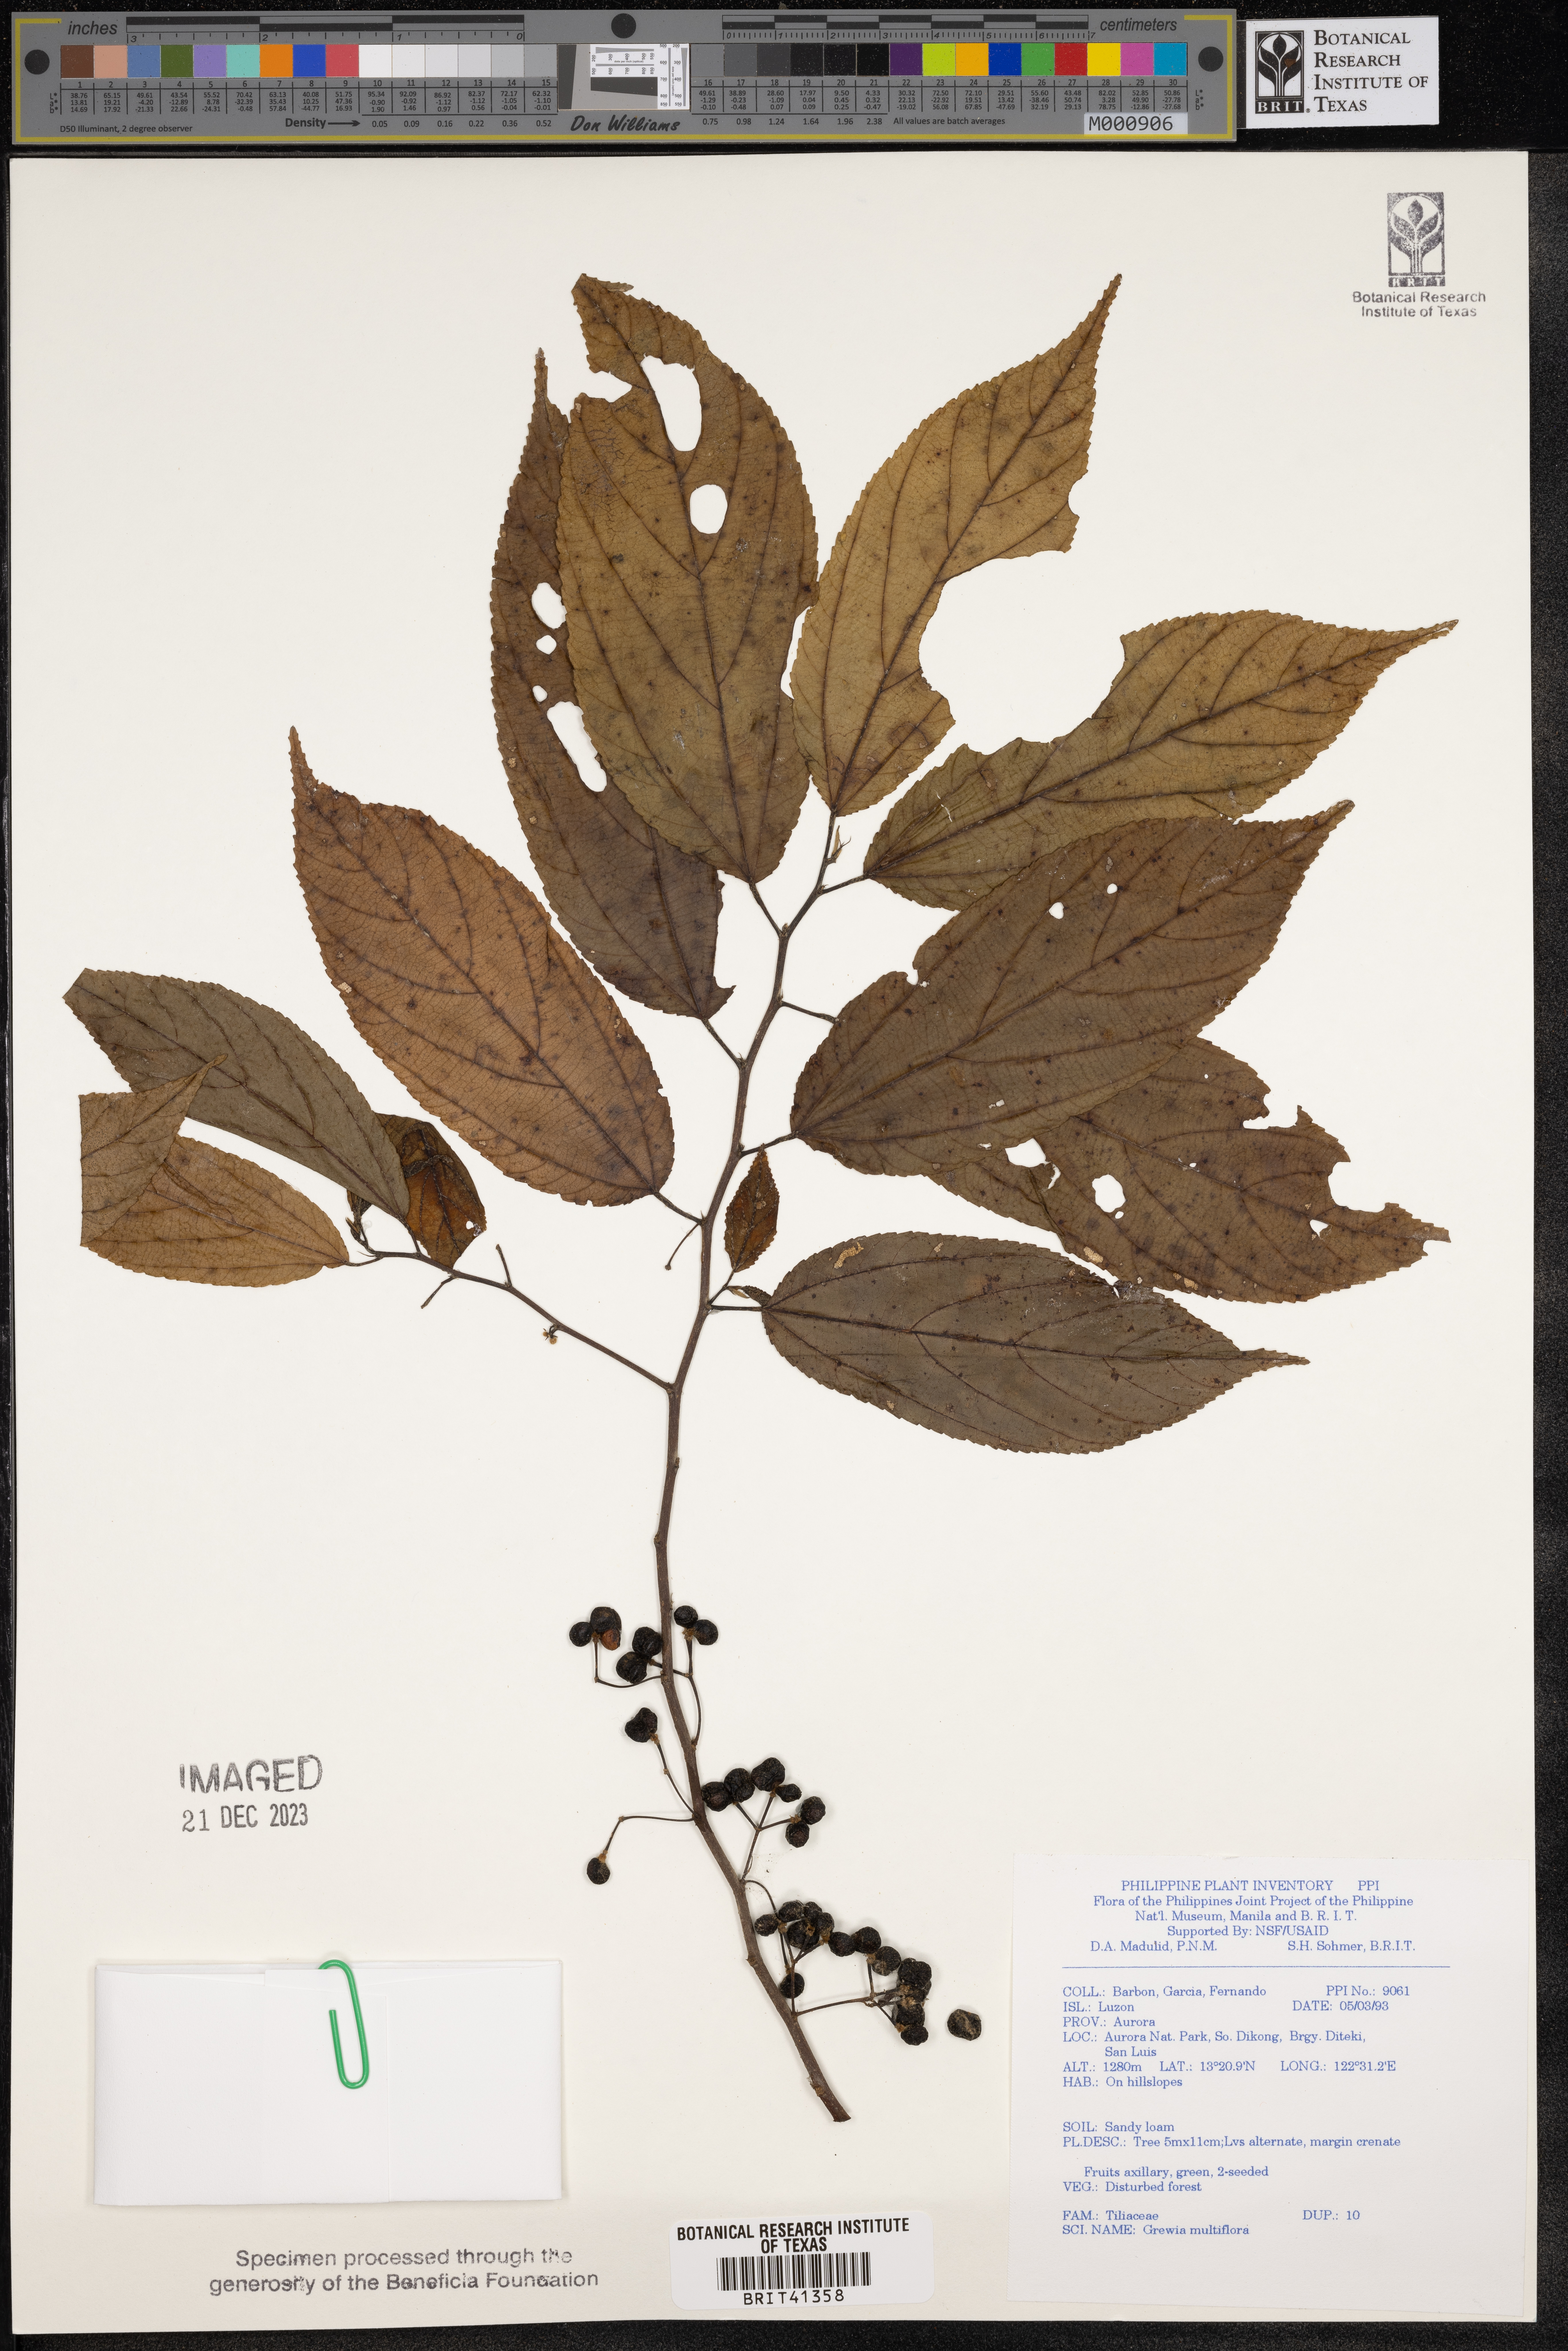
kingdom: Plantae
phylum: Tracheophyta
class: Magnoliopsida
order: Malvales
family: Malvaceae
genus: Grewia
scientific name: Grewia multiflora
